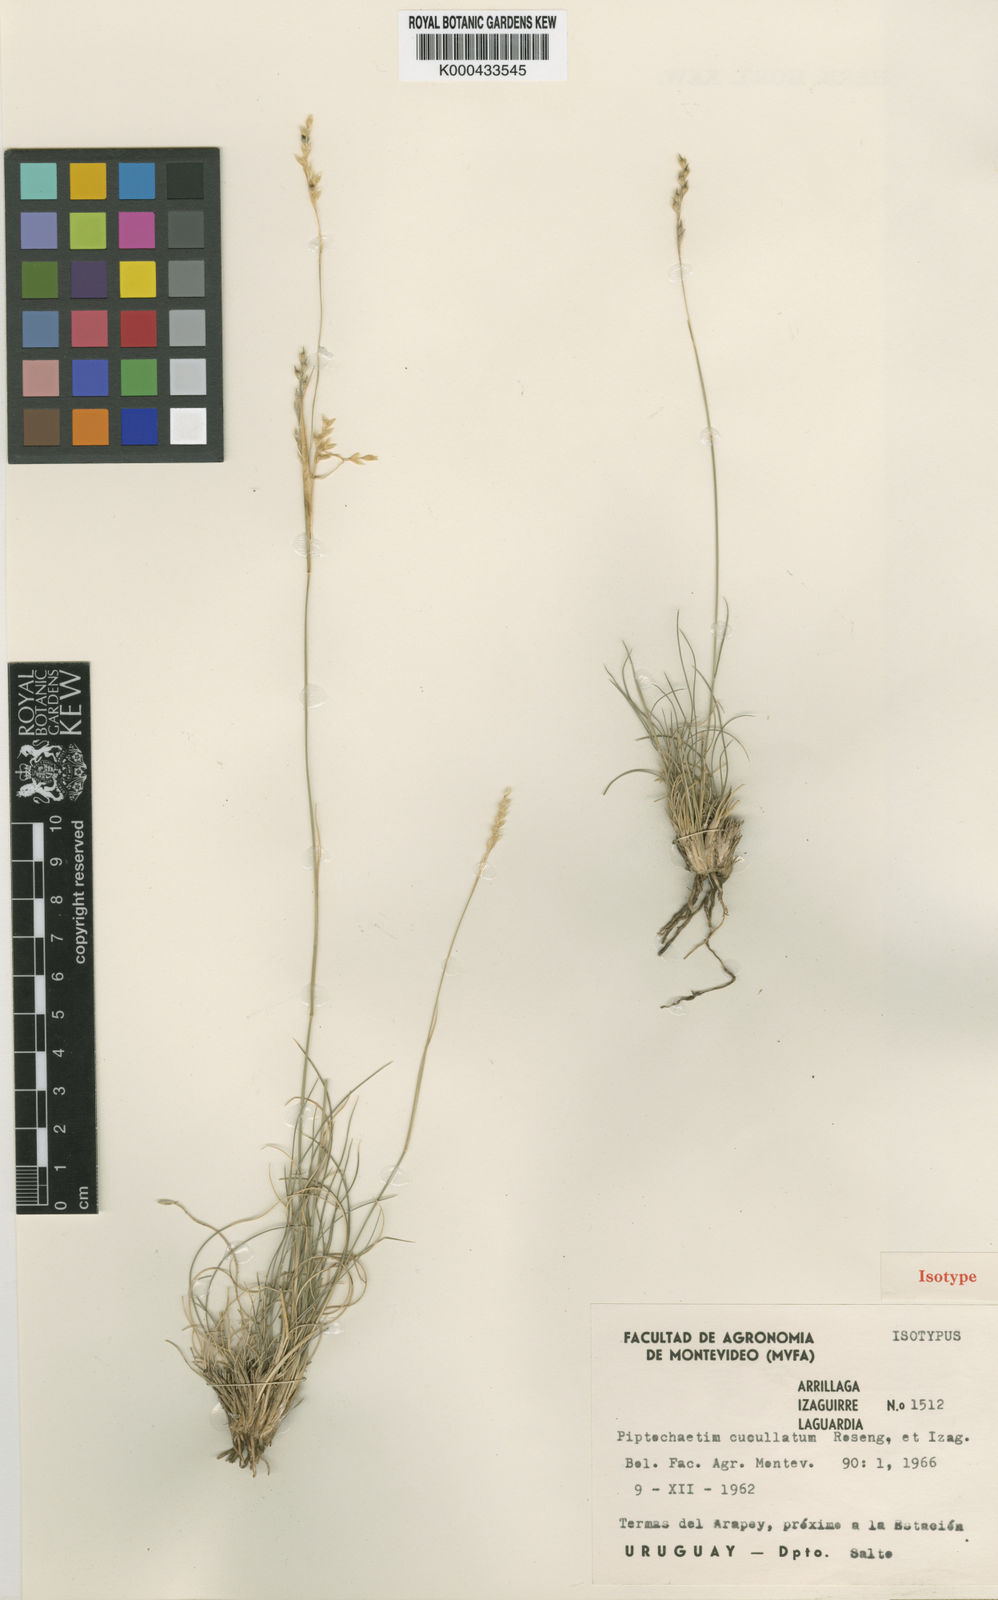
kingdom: Plantae
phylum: Tracheophyta
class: Liliopsida
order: Poales
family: Poaceae
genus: Piptochaetium
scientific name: Piptochaetium cucullatum
